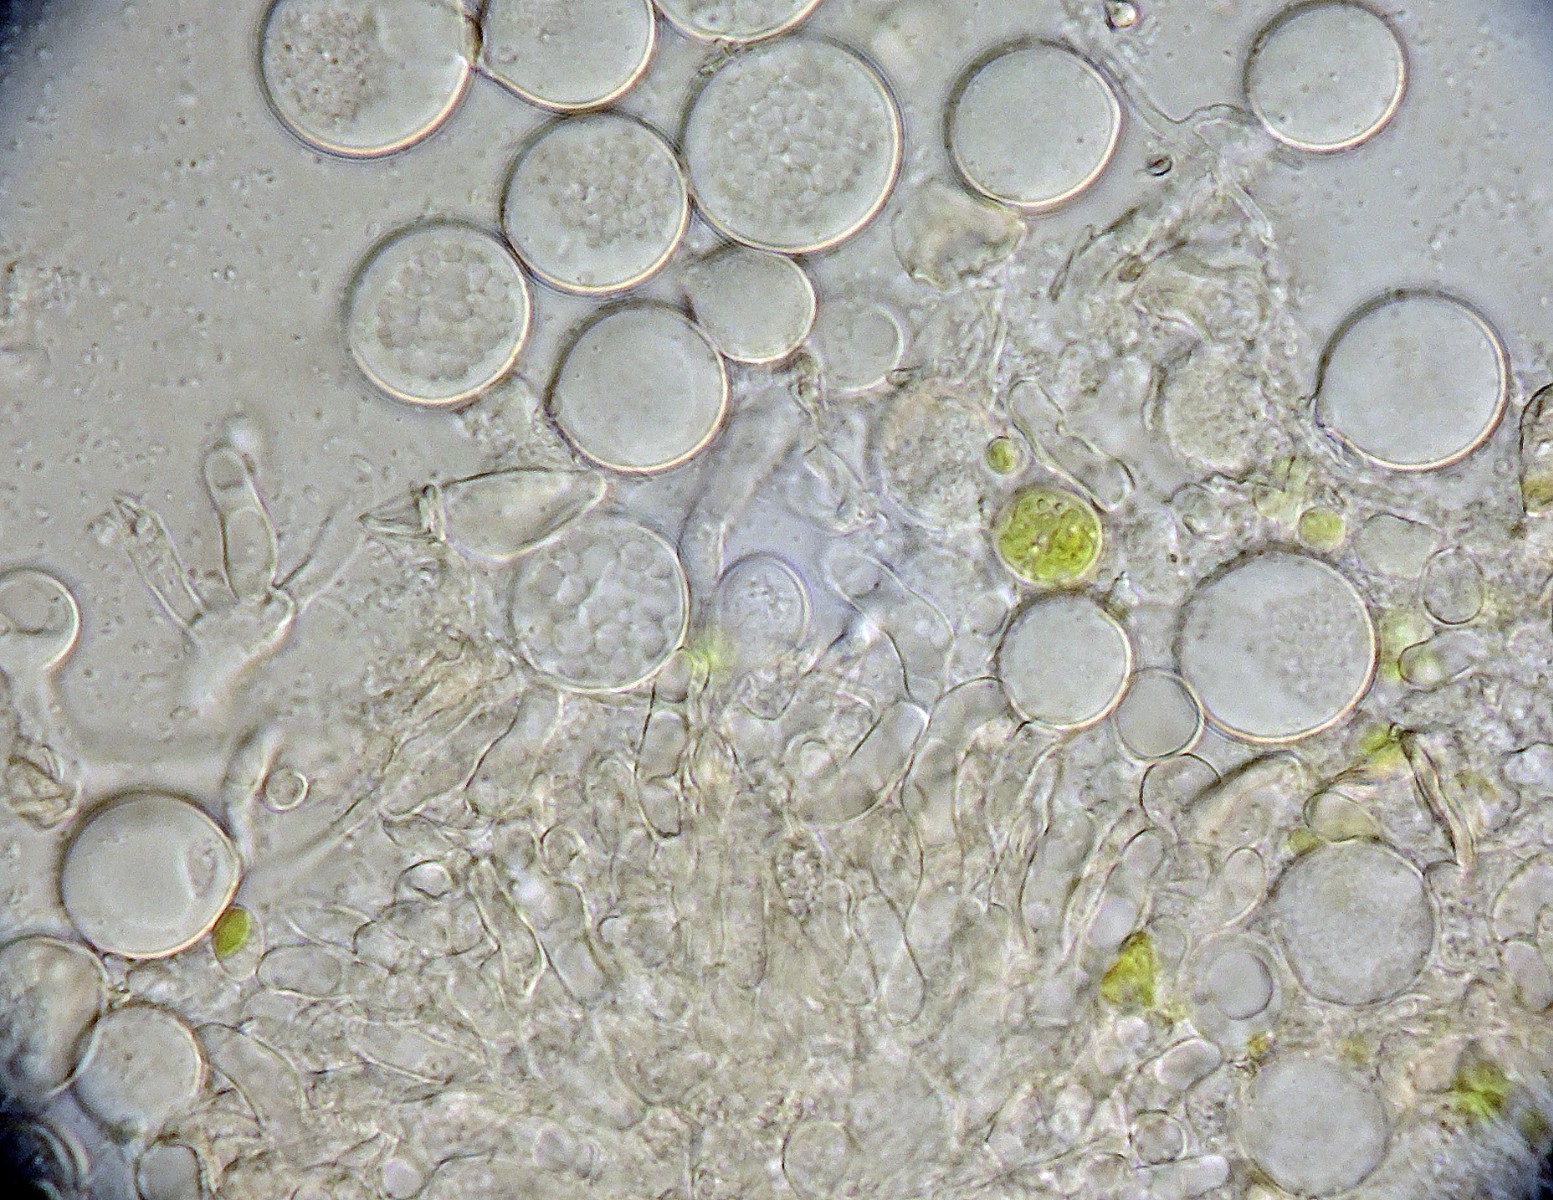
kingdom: Fungi
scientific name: Fungi
